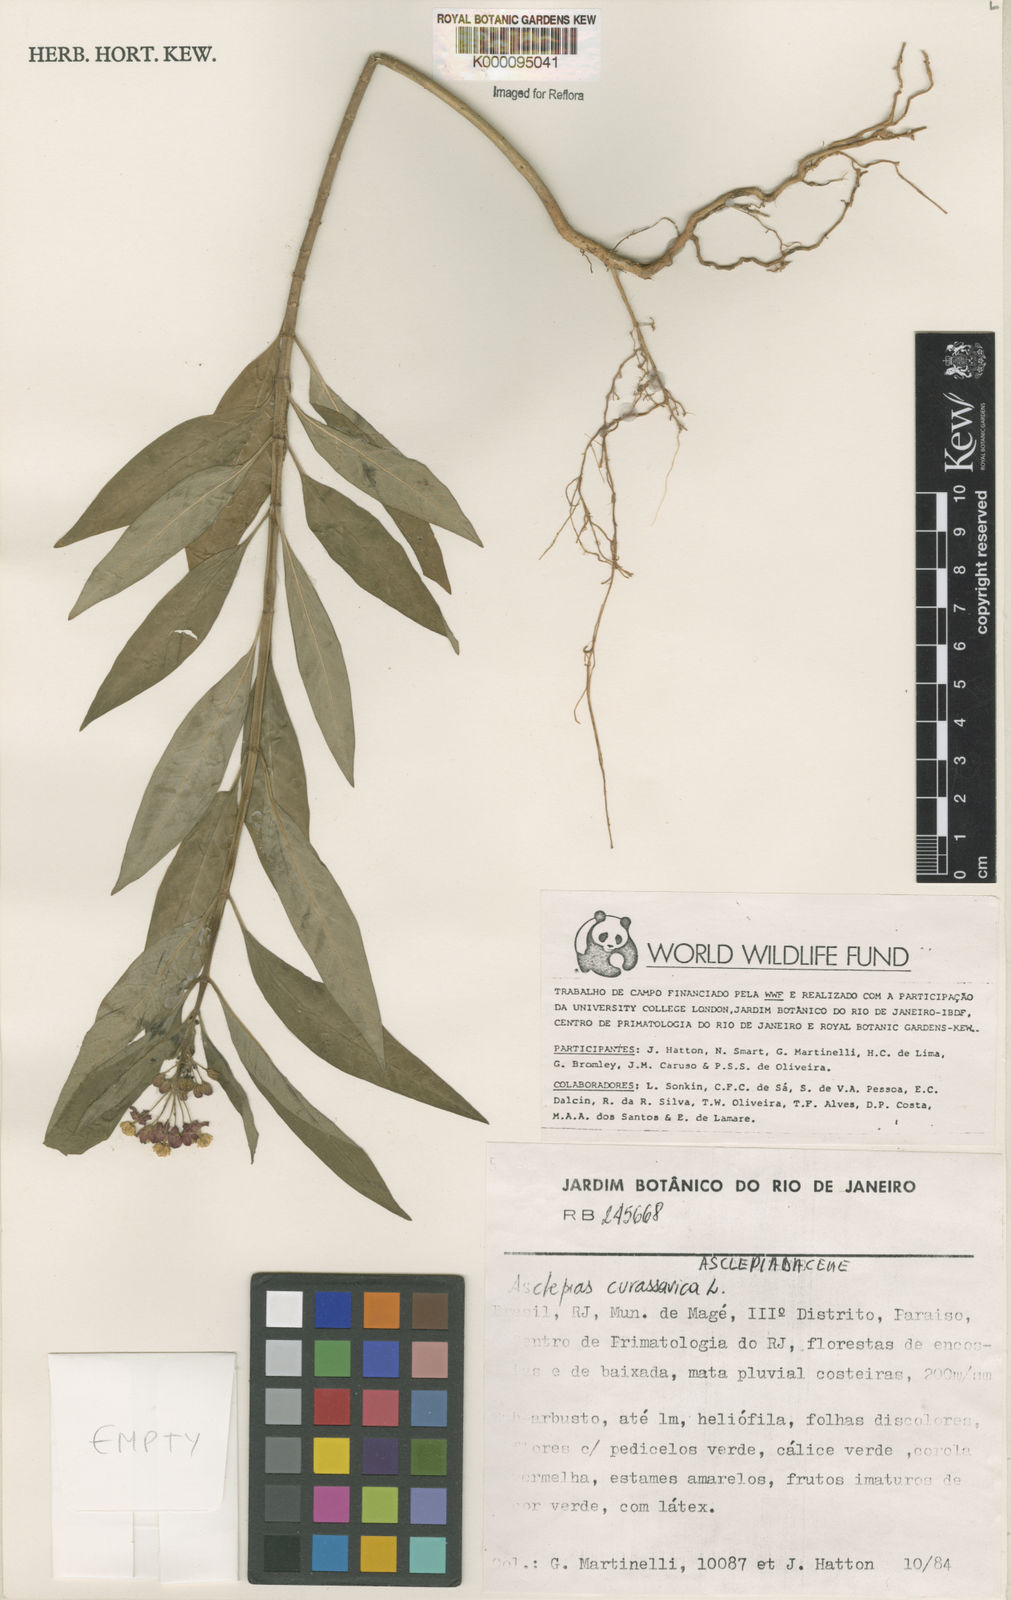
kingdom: Plantae
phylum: Tracheophyta
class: Magnoliopsida
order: Gentianales
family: Apocynaceae
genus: Asclepias
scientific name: Asclepias curassavica
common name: Bloodflower
